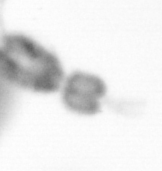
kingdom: Animalia
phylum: Arthropoda
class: Copepoda
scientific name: Copepoda
